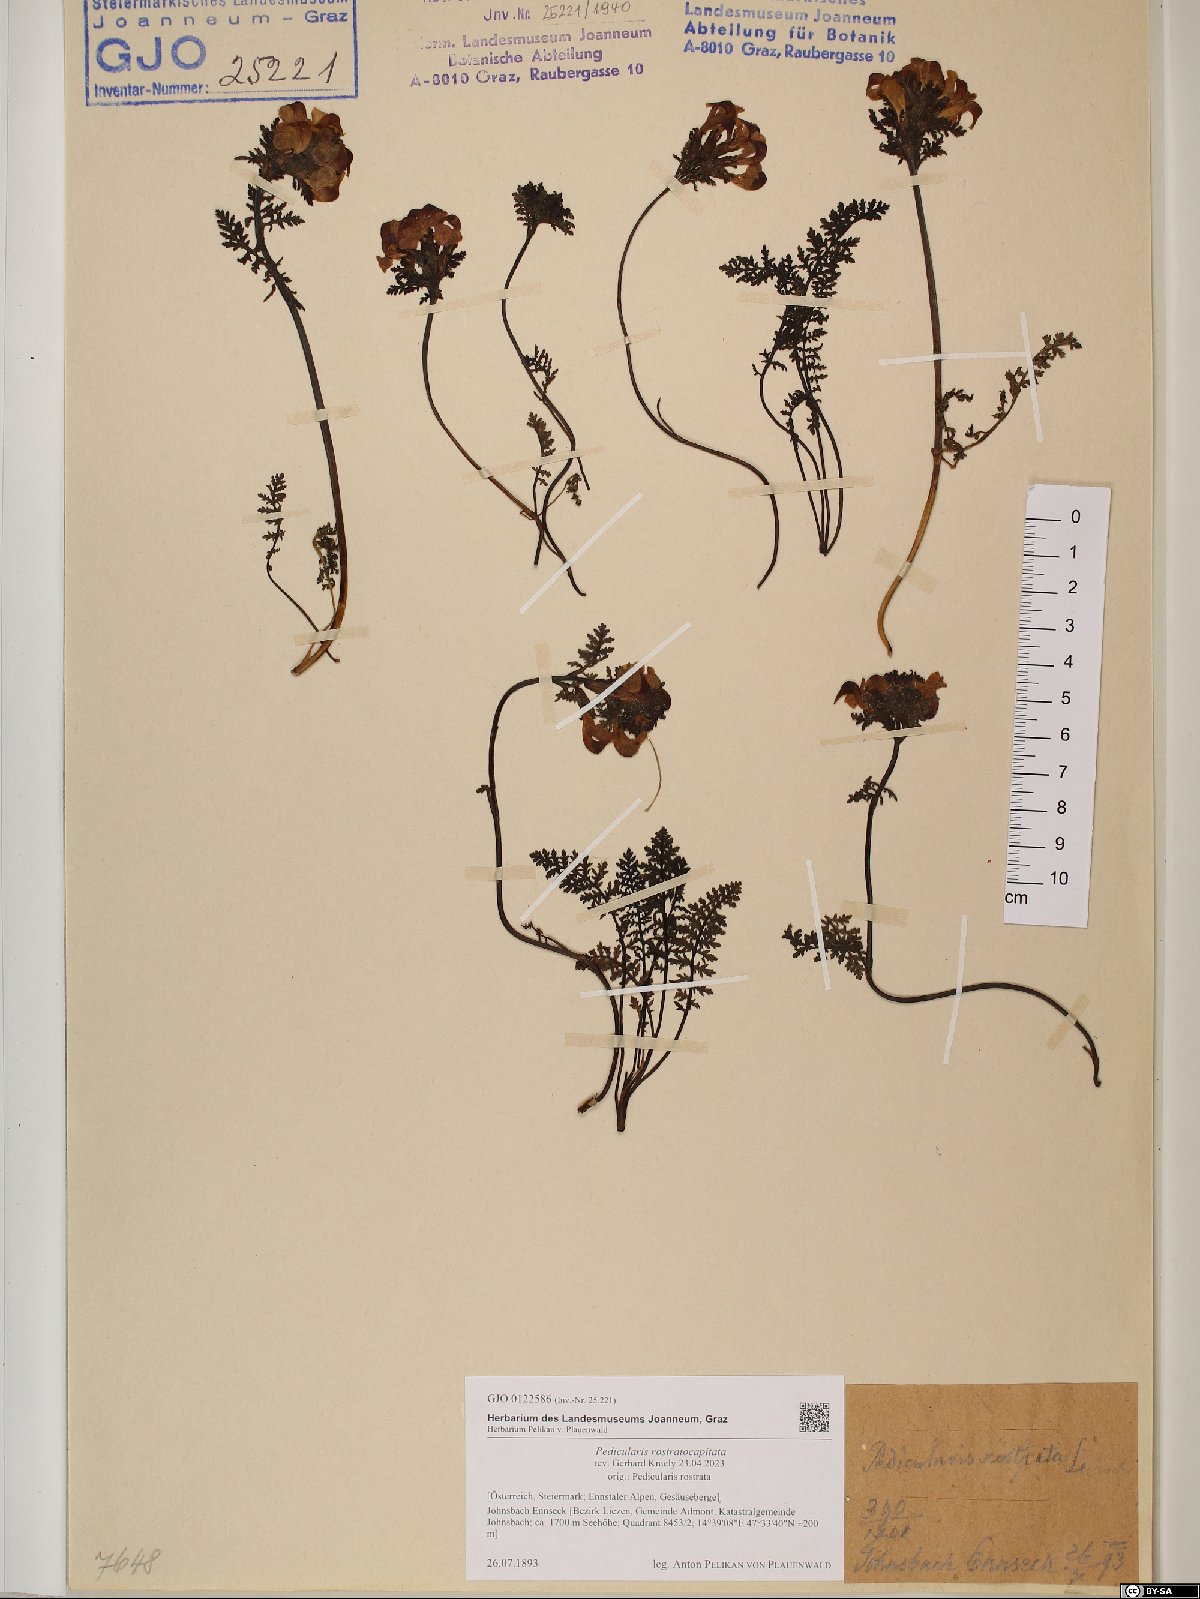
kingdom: Plantae
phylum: Tracheophyta
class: Magnoliopsida
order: Lamiales
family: Orobanchaceae
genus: Pedicularis
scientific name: Pedicularis rostratocapitata
